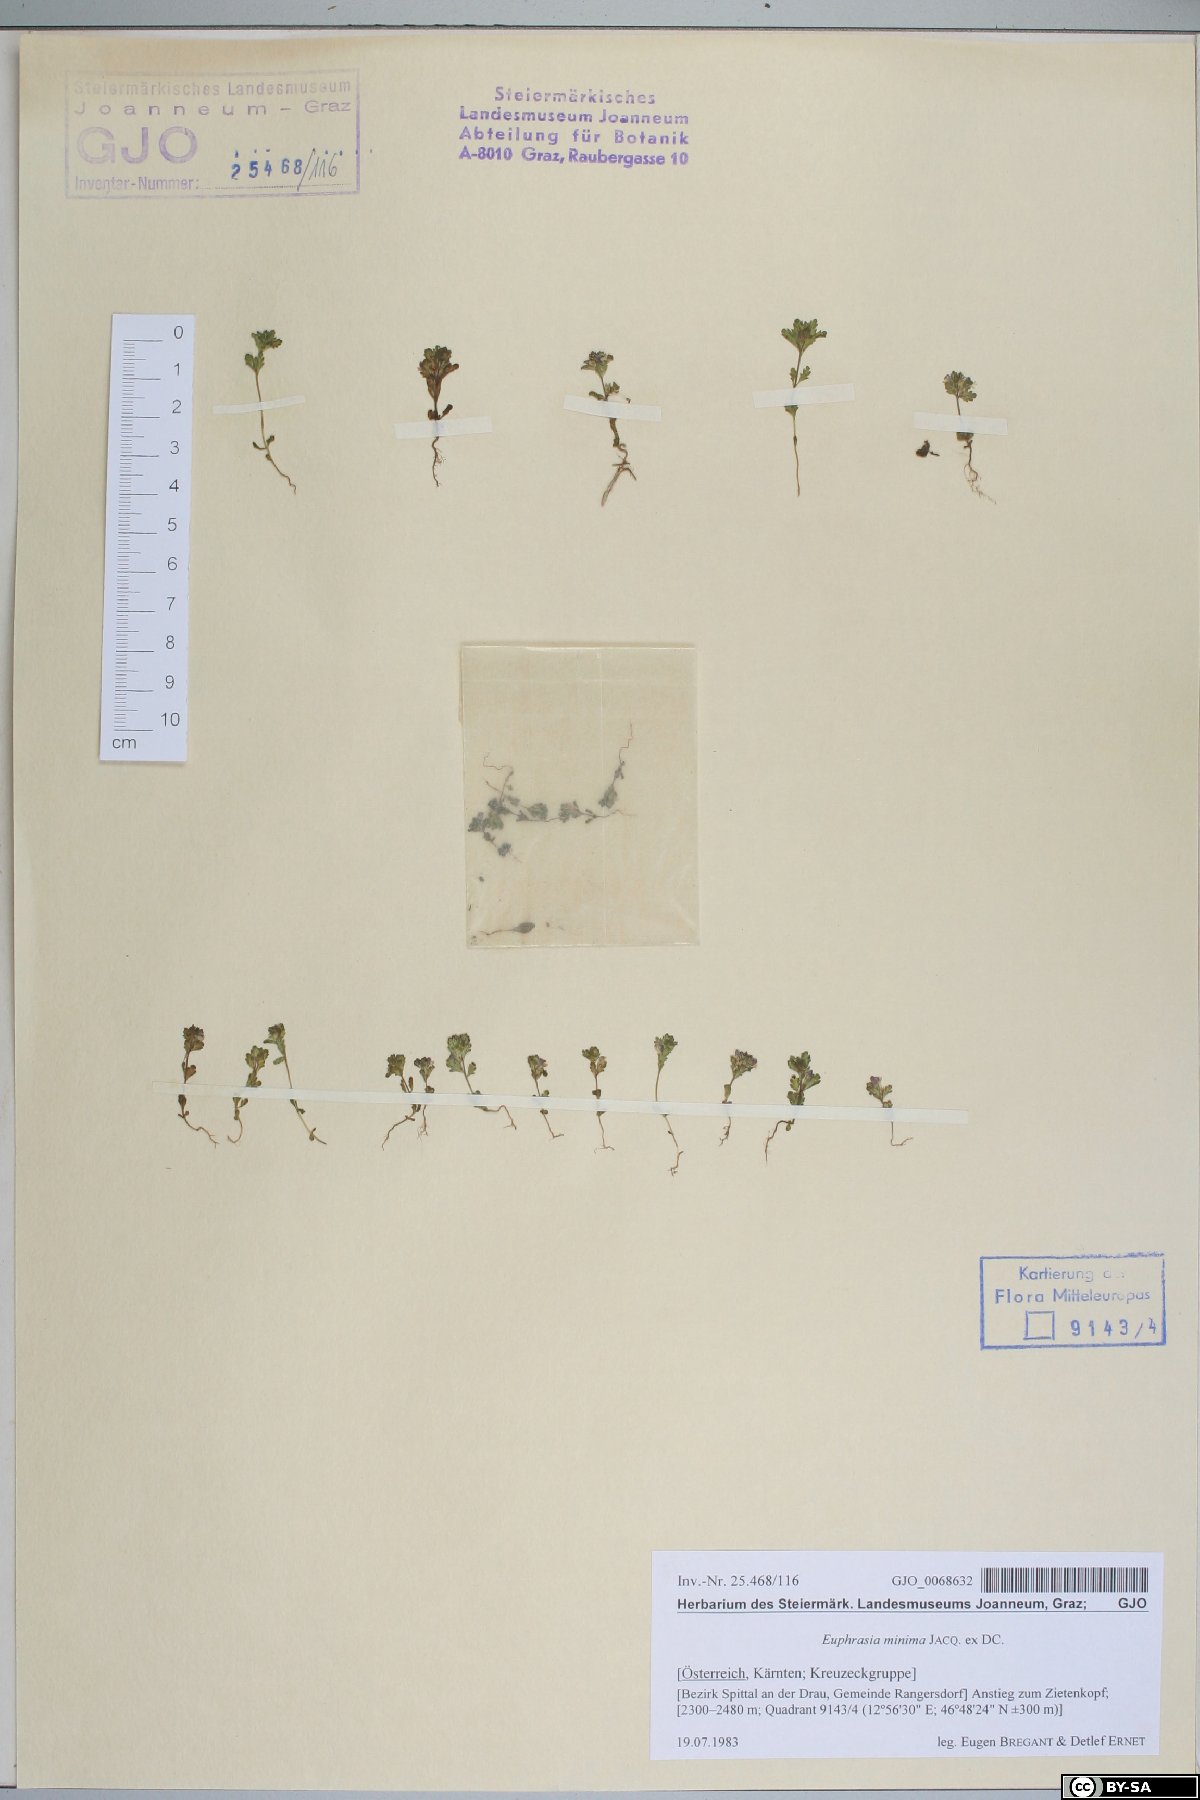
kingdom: Plantae
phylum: Tracheophyta
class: Magnoliopsida
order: Lamiales
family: Orobanchaceae
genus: Euphrasia
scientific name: Euphrasia minima
